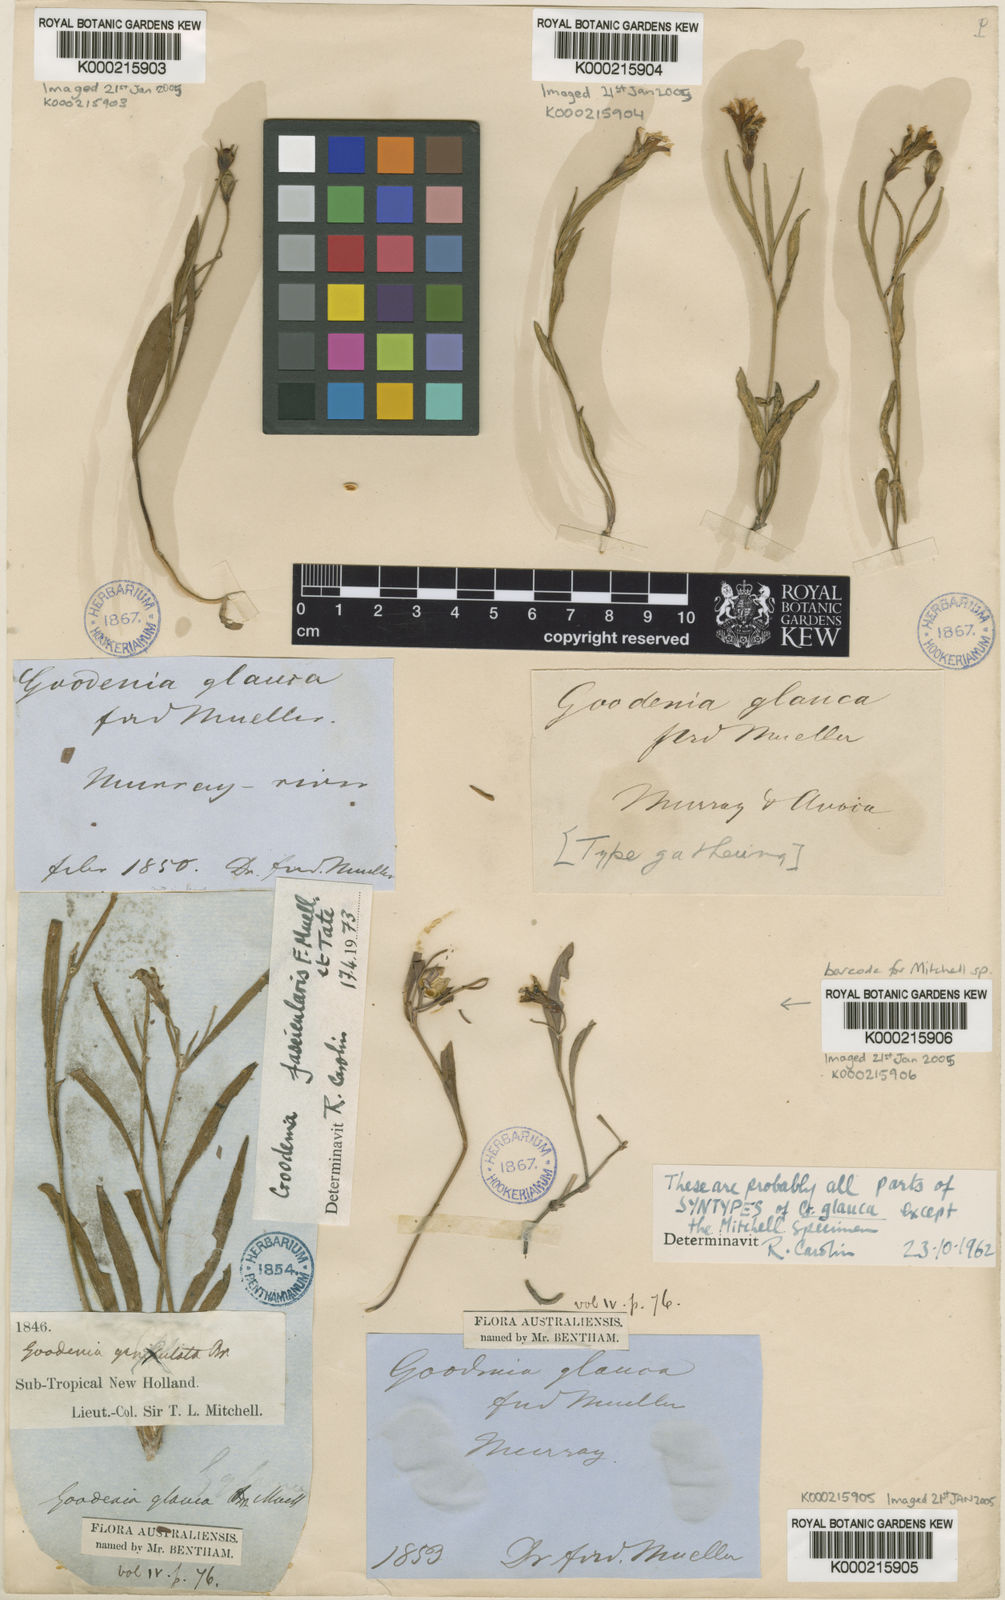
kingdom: Plantae
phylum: Tracheophyta
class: Magnoliopsida
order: Asterales
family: Goodeniaceae
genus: Goodenia
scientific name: Goodenia glauca
